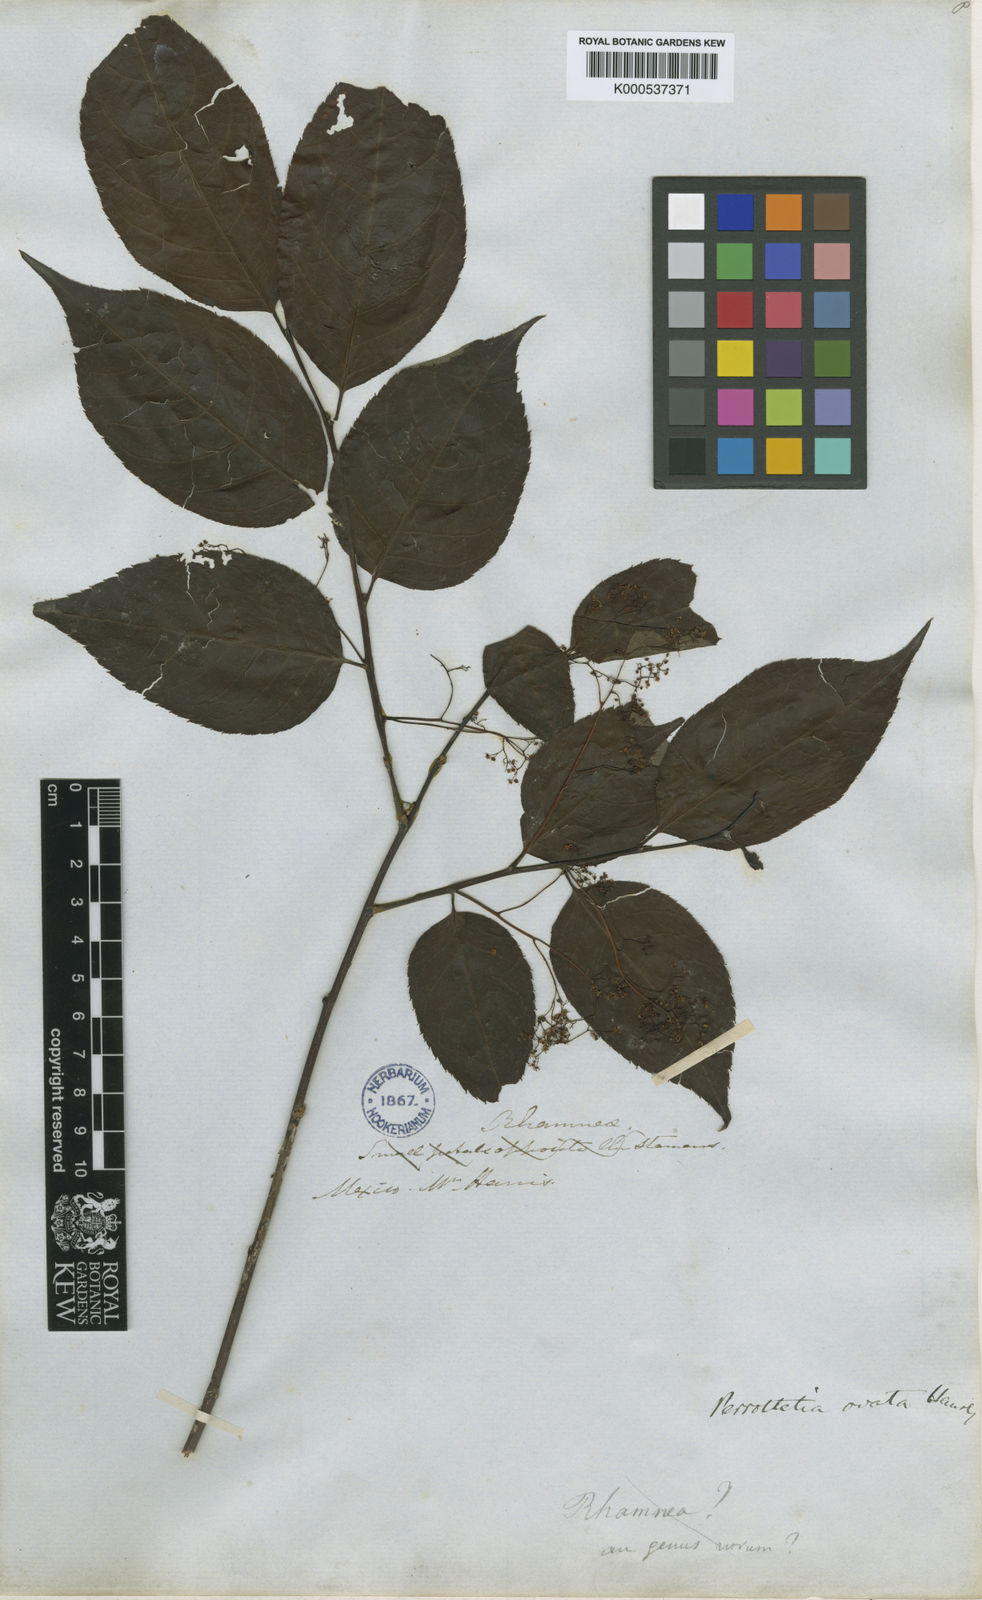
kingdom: Plantae
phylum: Tracheophyta
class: Magnoliopsida
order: Huerteales
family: Dipentodontaceae
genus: Perrottetia
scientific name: Perrottetia ovata
